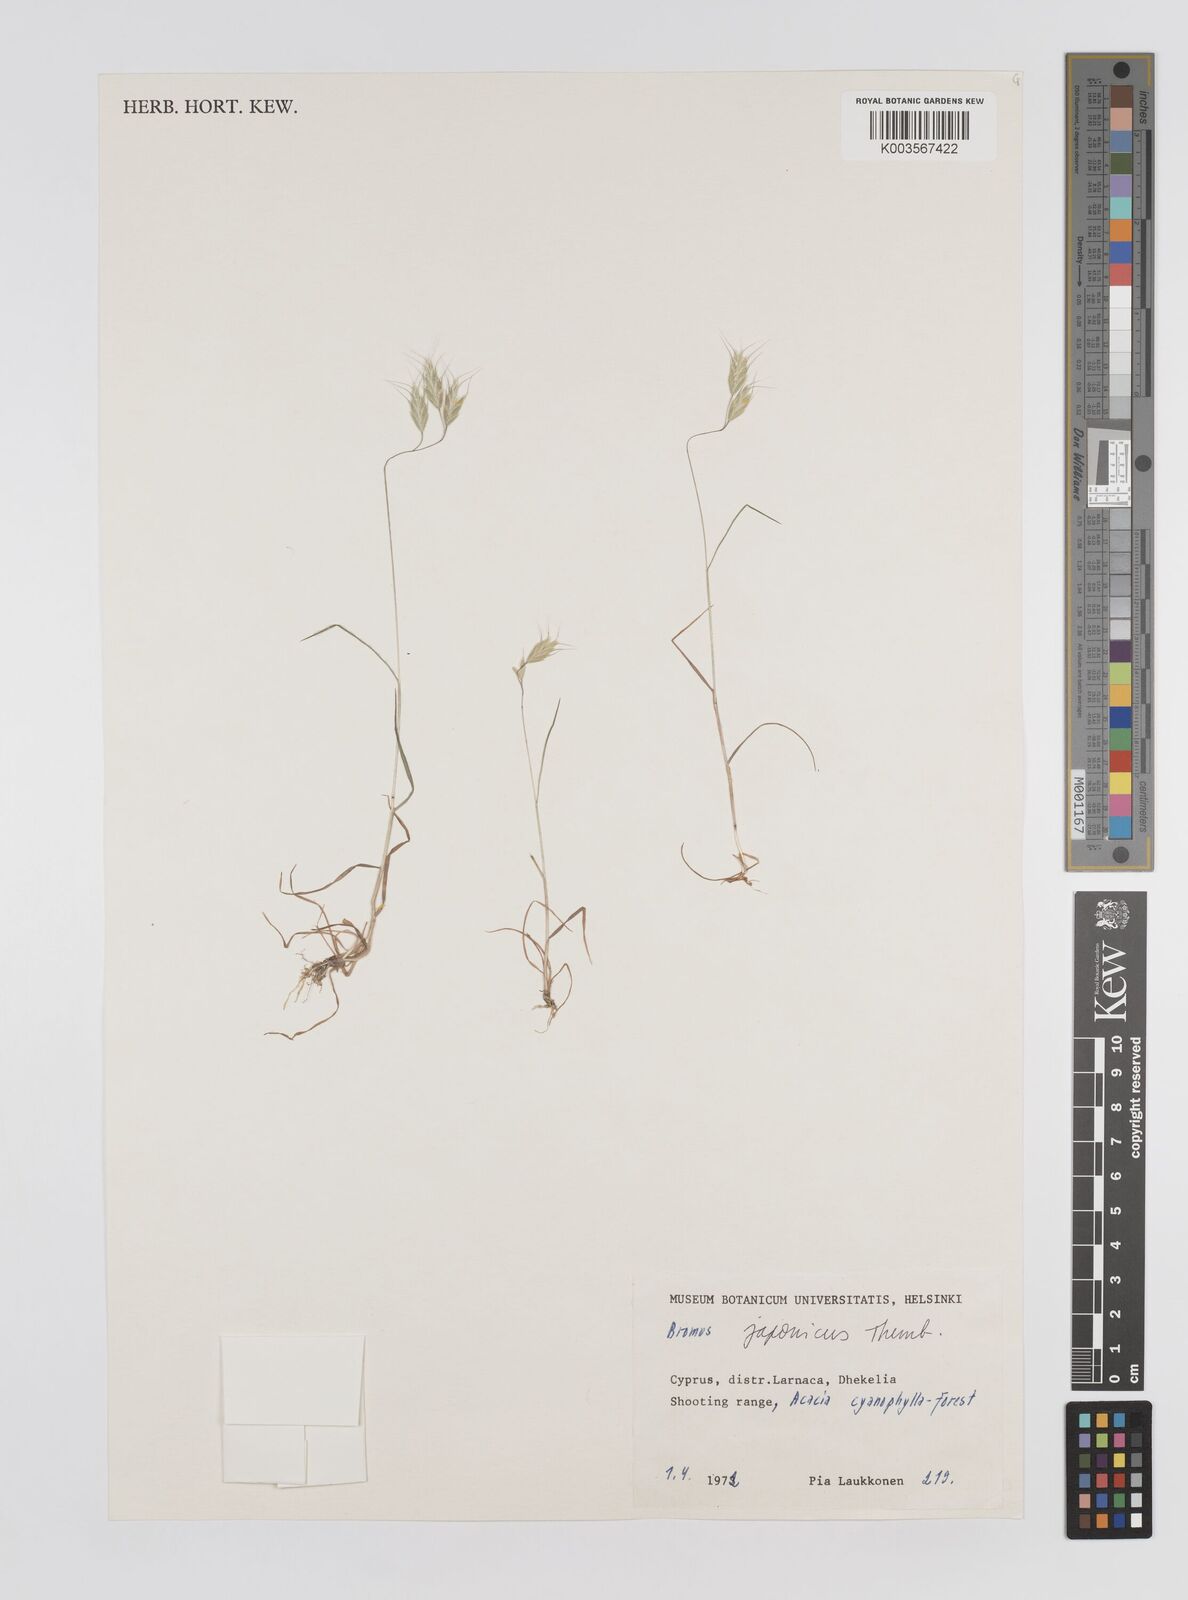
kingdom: Plantae
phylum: Tracheophyta
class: Liliopsida
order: Poales
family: Poaceae
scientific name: Poaceae
